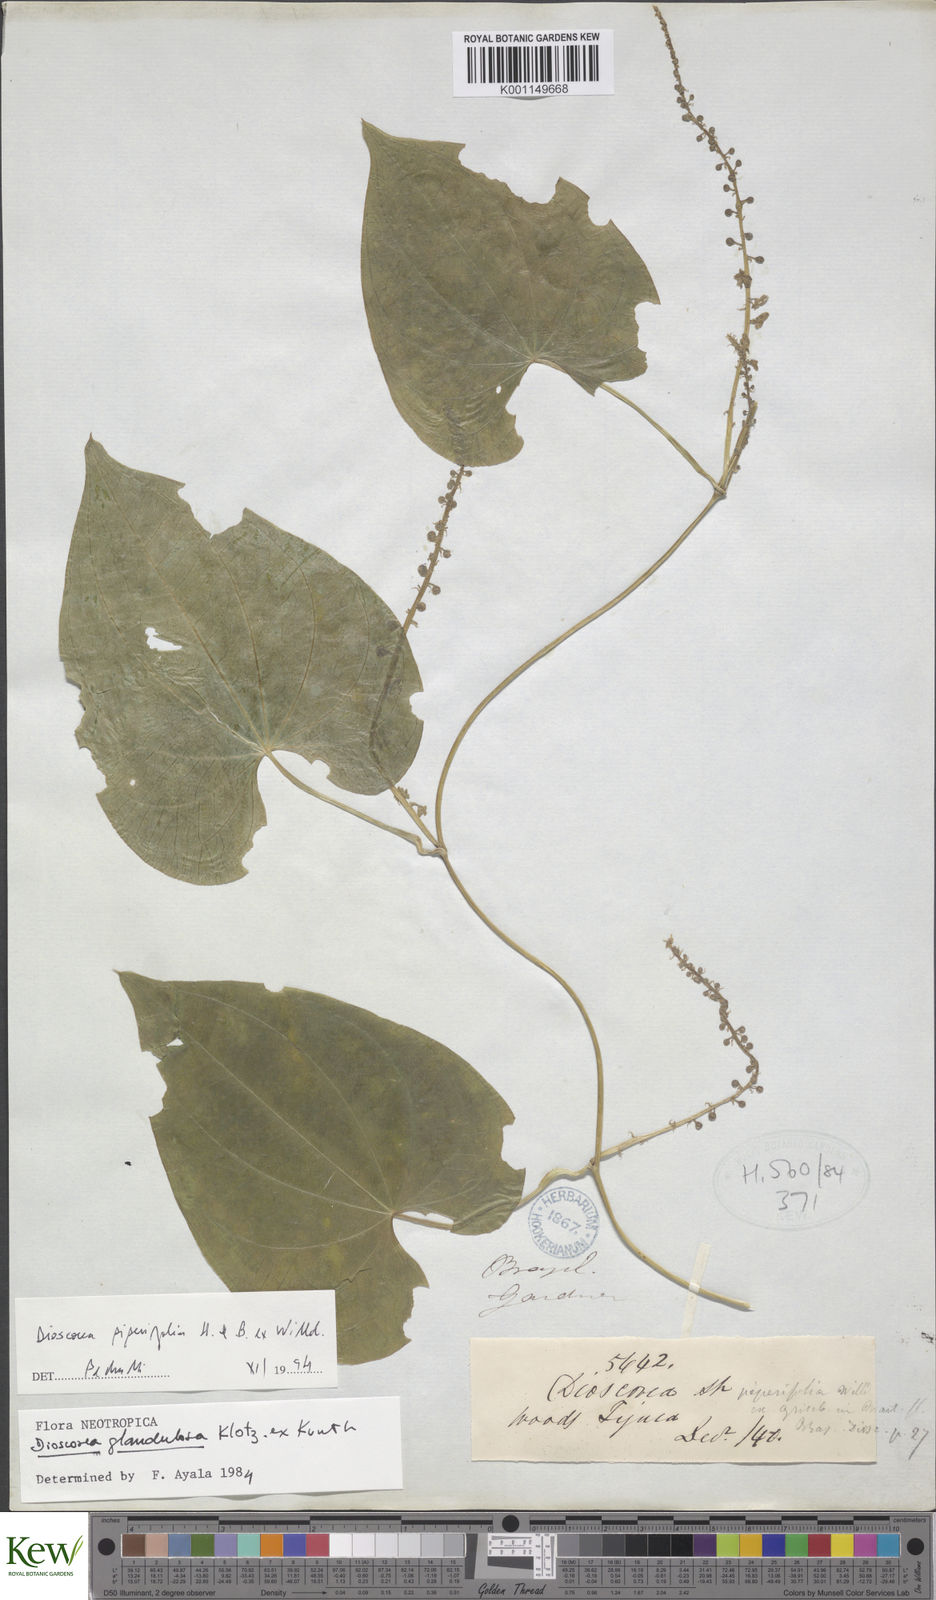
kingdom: Plantae
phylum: Tracheophyta
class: Liliopsida
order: Dioscoreales
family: Dioscoreaceae
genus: Dioscorea
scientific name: Dioscorea glandulosa
